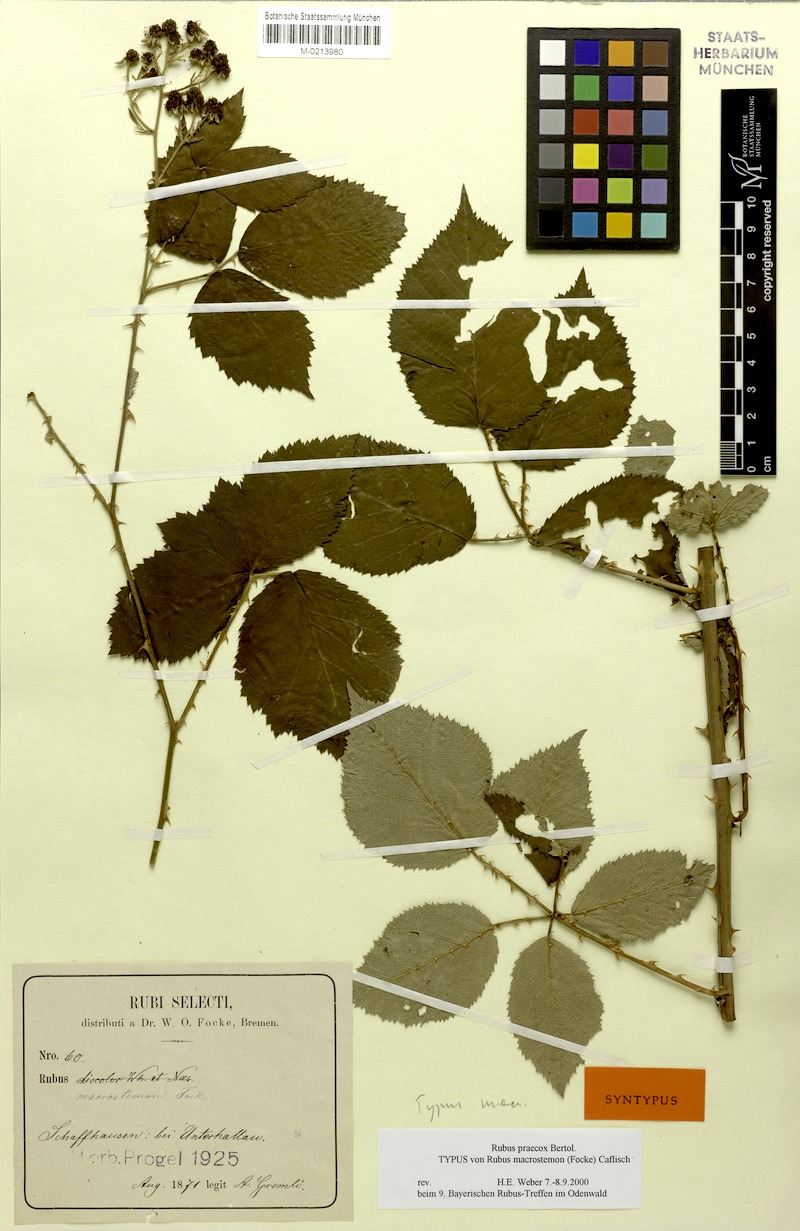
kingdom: Plantae
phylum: Tracheophyta
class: Magnoliopsida
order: Rosales
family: Rosaceae
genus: Rubus
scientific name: Rubus praecox
